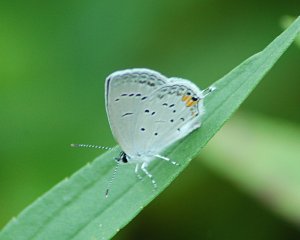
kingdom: Animalia
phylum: Arthropoda
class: Insecta
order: Lepidoptera
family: Lycaenidae
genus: Elkalyce
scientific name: Elkalyce comyntas
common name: Eastern Tailed-Blue
